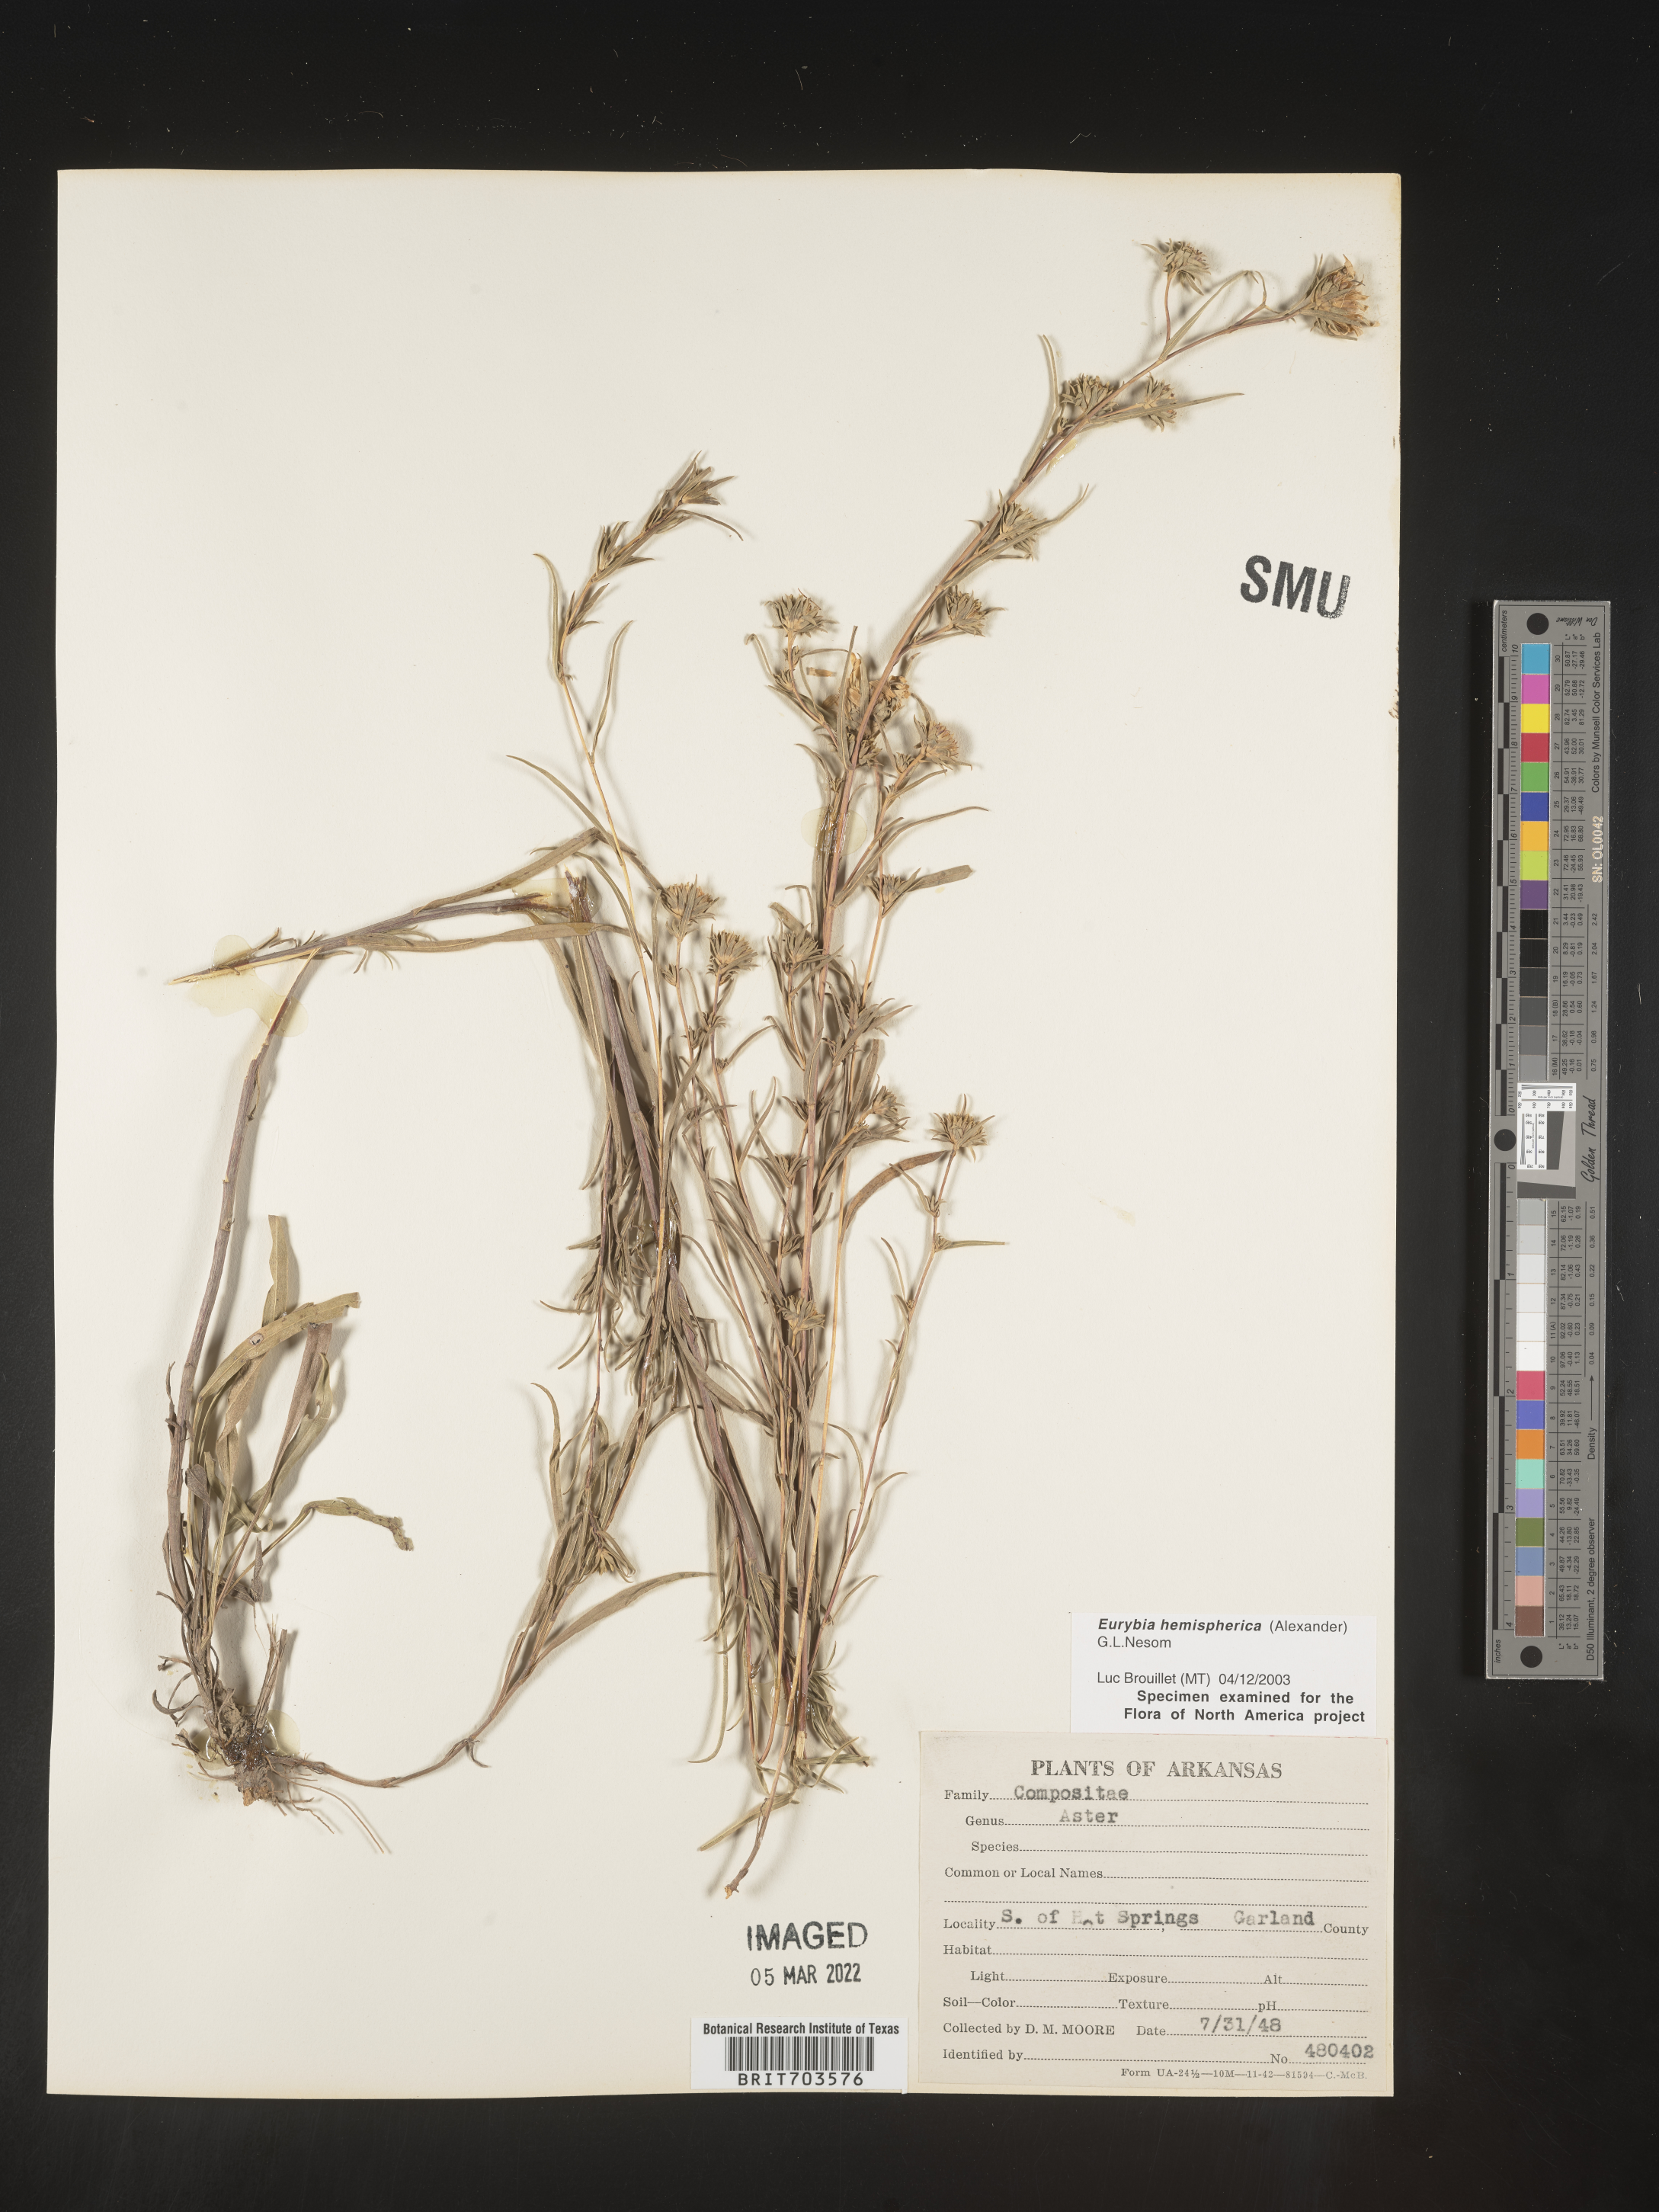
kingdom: Plantae
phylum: Tracheophyta
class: Magnoliopsida
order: Asterales
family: Asteraceae
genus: Eurybia
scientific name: Eurybia hemispherica
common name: Showy aster
